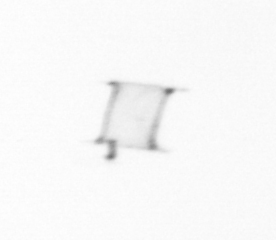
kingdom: Chromista
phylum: Ochrophyta
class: Bacillariophyceae
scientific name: Bacillariophyceae
